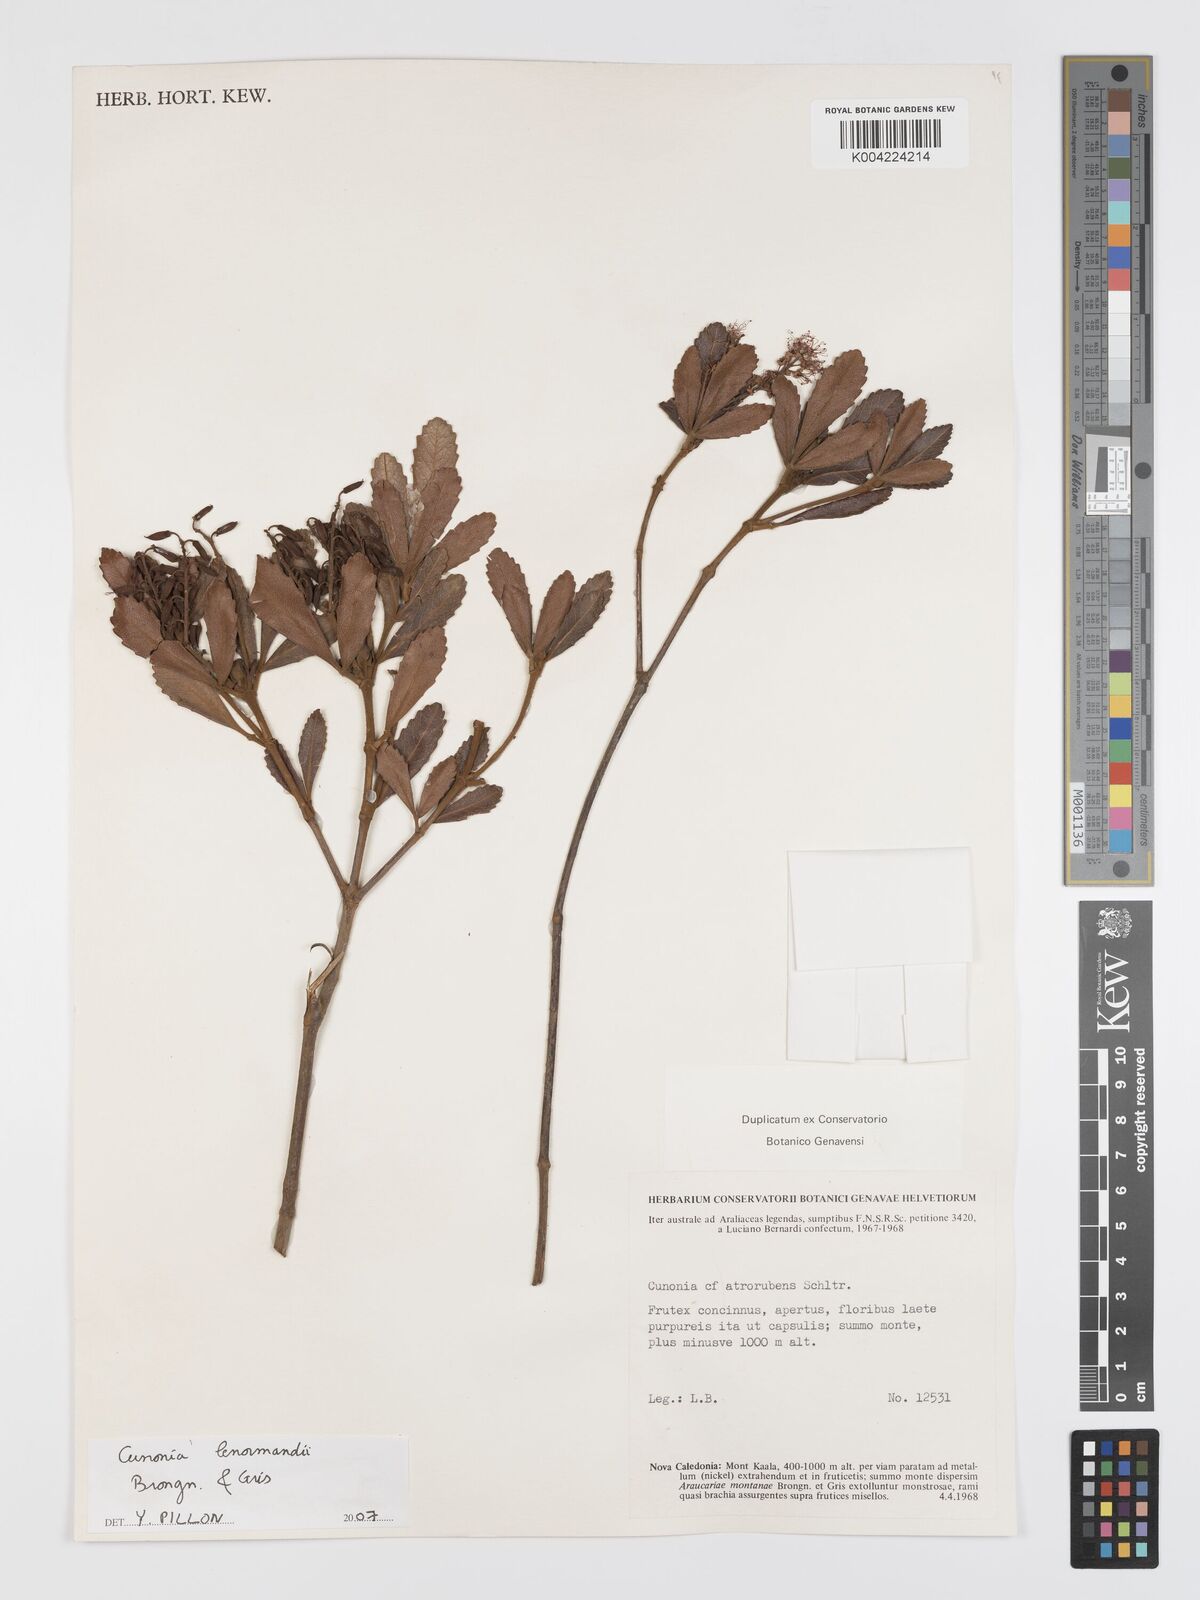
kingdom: Plantae
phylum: Tracheophyta
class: Magnoliopsida
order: Oxalidales
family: Cunoniaceae
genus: Cunonia
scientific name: Cunonia lenormandii
